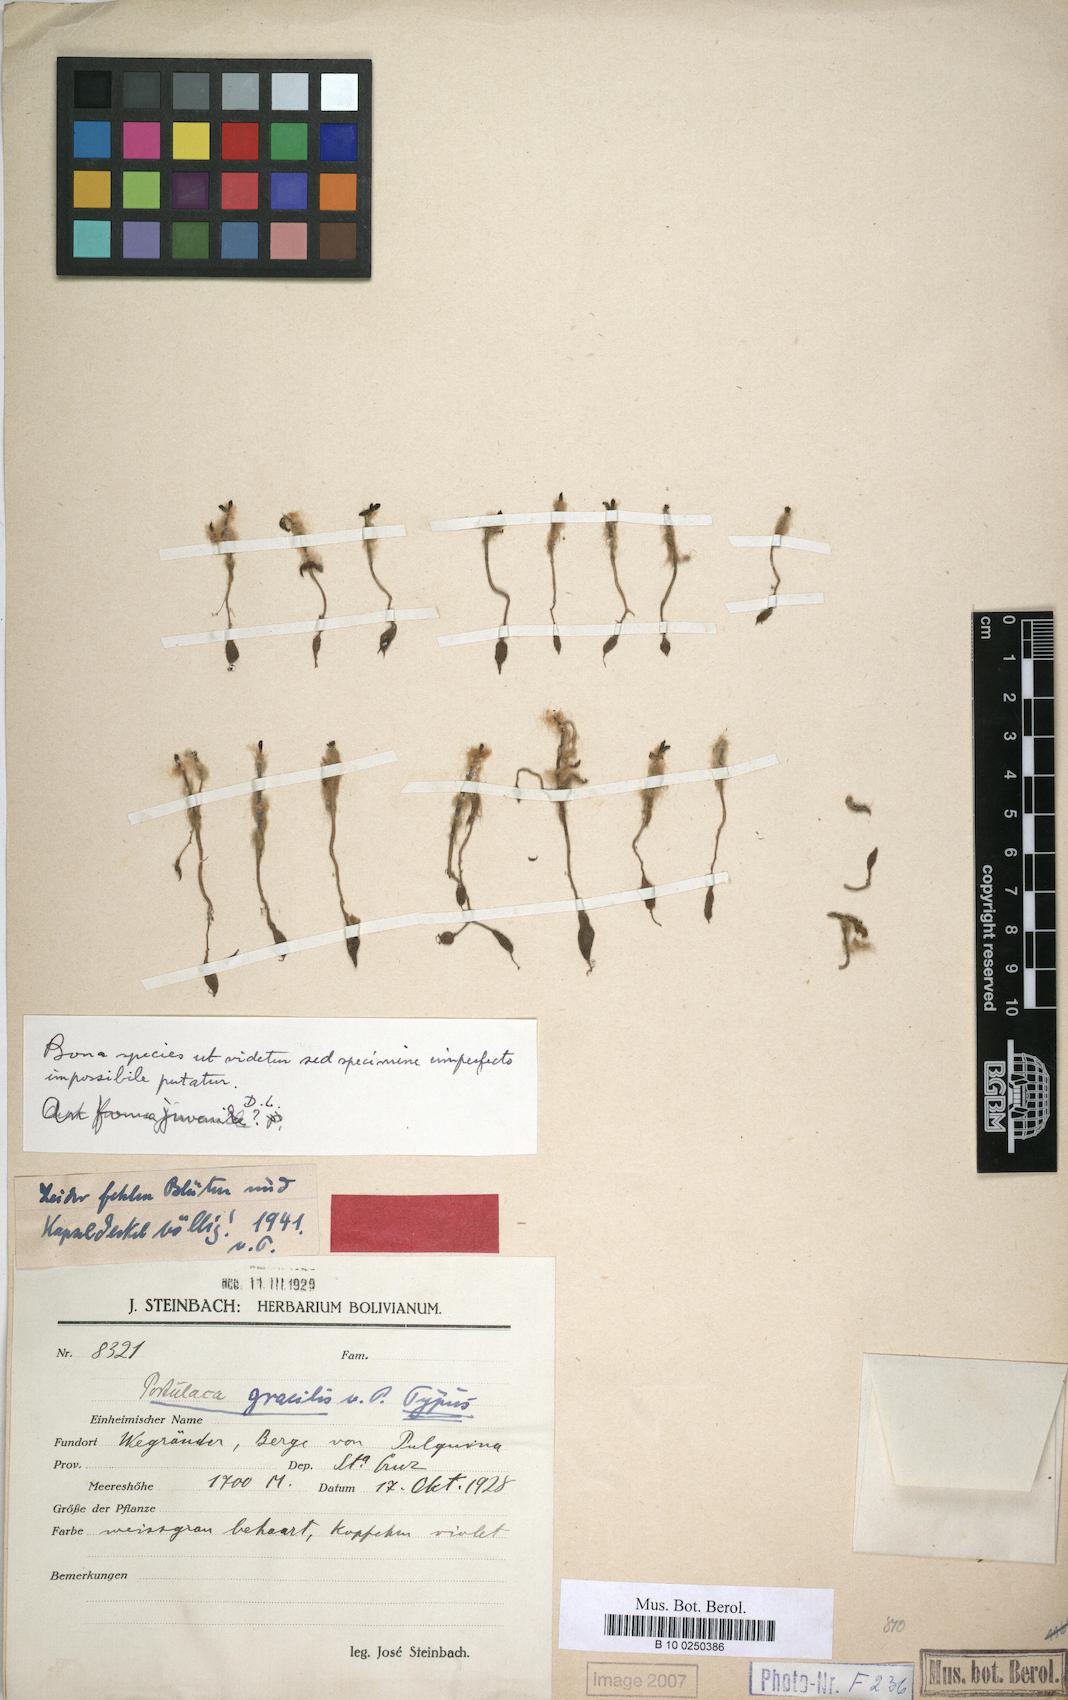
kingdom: Plantae
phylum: Tracheophyta
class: Magnoliopsida
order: Caryophyllales
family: Portulacaceae
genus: Portulaca
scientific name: Portulaca gracilis
